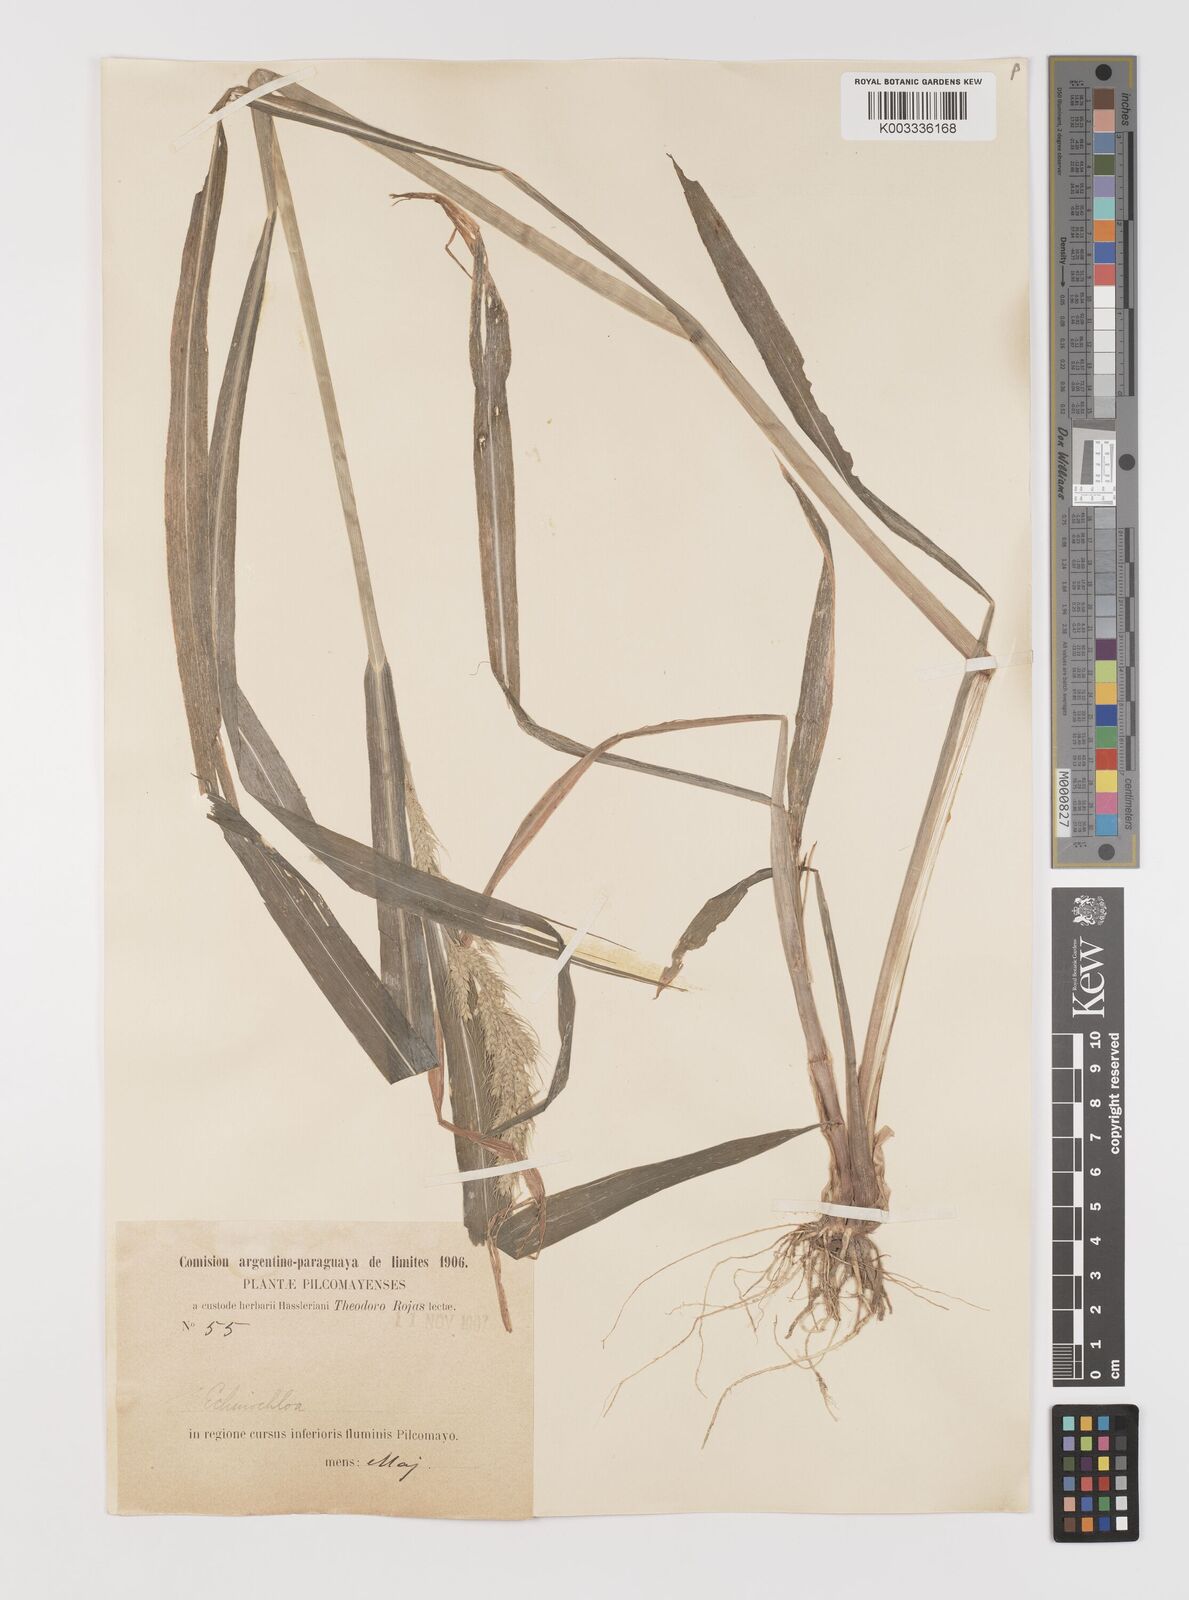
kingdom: Plantae
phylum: Tracheophyta
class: Liliopsida
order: Poales
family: Poaceae
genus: Echinochloa
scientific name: Echinochloa crus-pavonis
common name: Gulf cockspur grass
